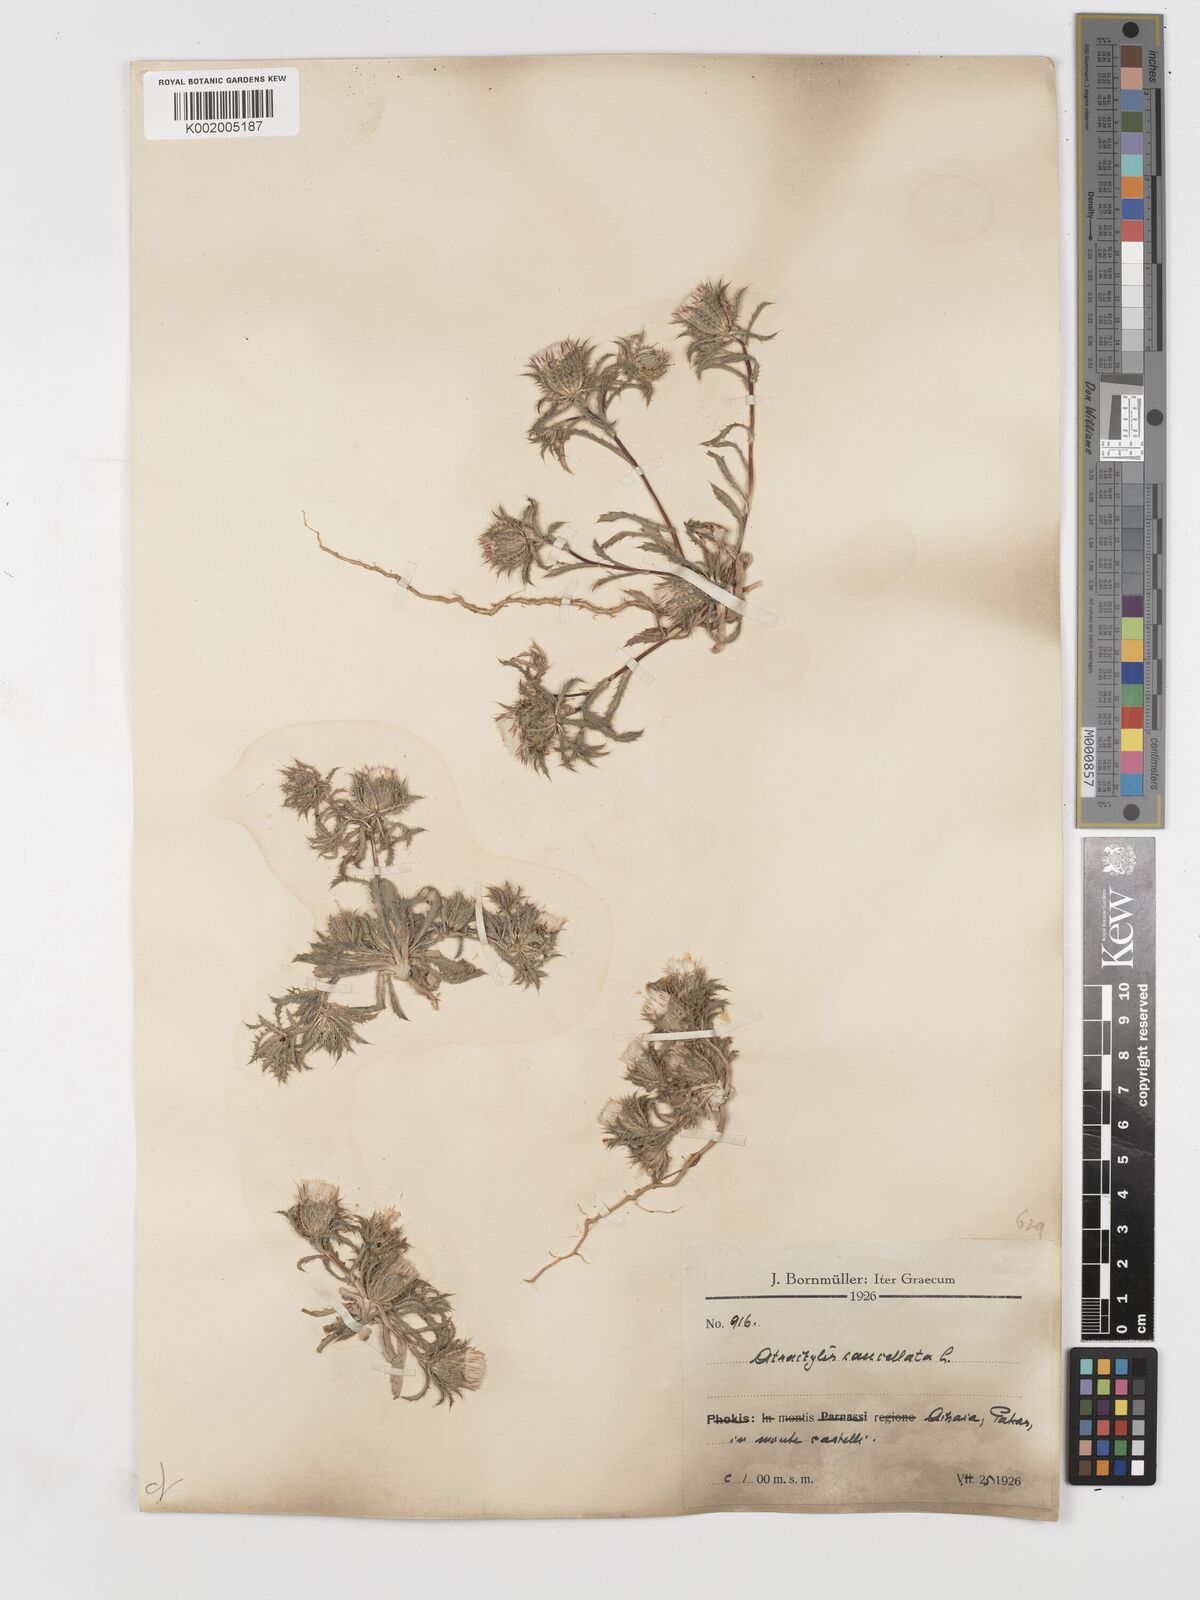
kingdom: Plantae
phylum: Tracheophyta
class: Magnoliopsida
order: Asterales
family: Asteraceae
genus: Atractylis
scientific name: Atractylis cancellata
